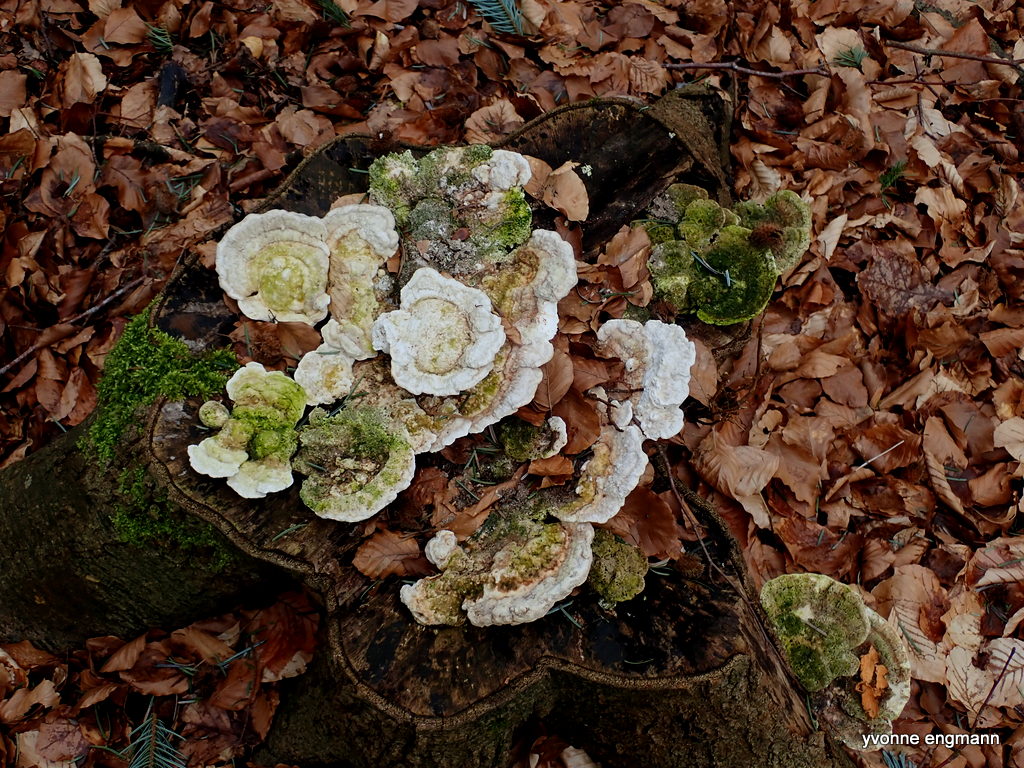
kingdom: Fungi
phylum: Basidiomycota
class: Agaricomycetes
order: Polyporales
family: Polyporaceae
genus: Trametes
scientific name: Trametes gibbosa
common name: puklet læderporesvamp
